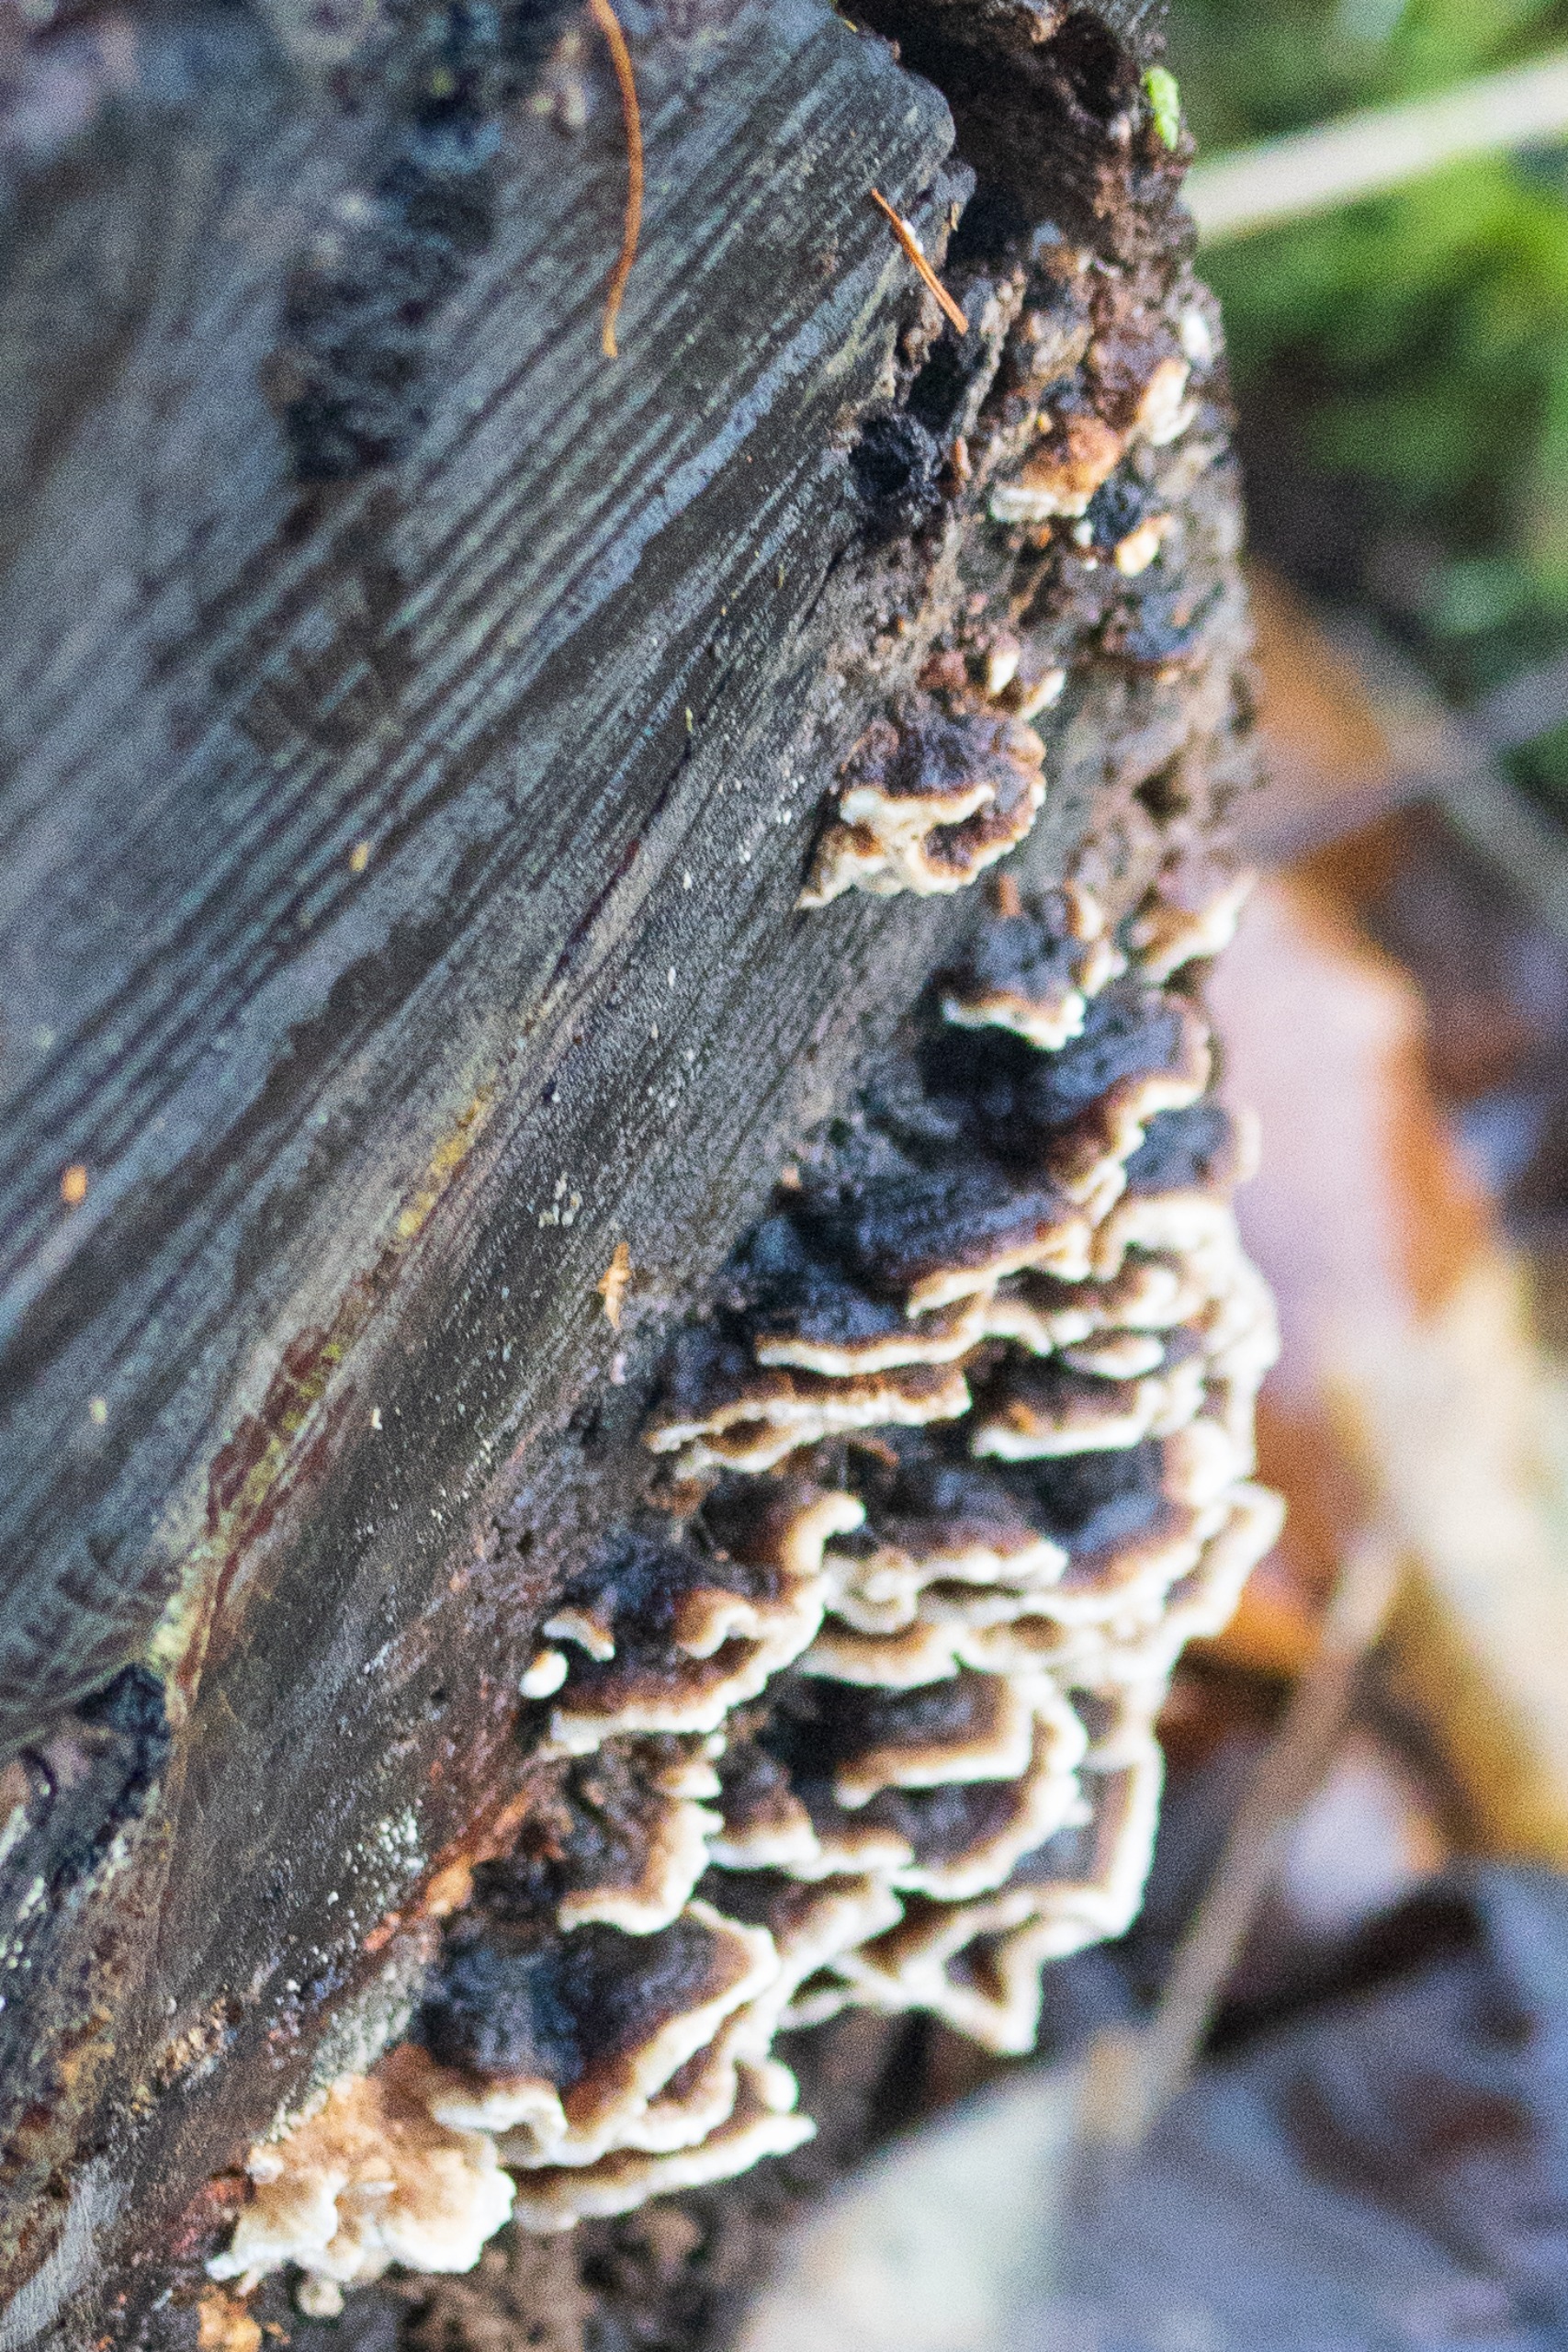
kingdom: Fungi
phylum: Basidiomycota
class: Agaricomycetes
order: Polyporales
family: Polyporaceae
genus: Trametes
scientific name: Trametes versicolor
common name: Broget læderporesvamp
